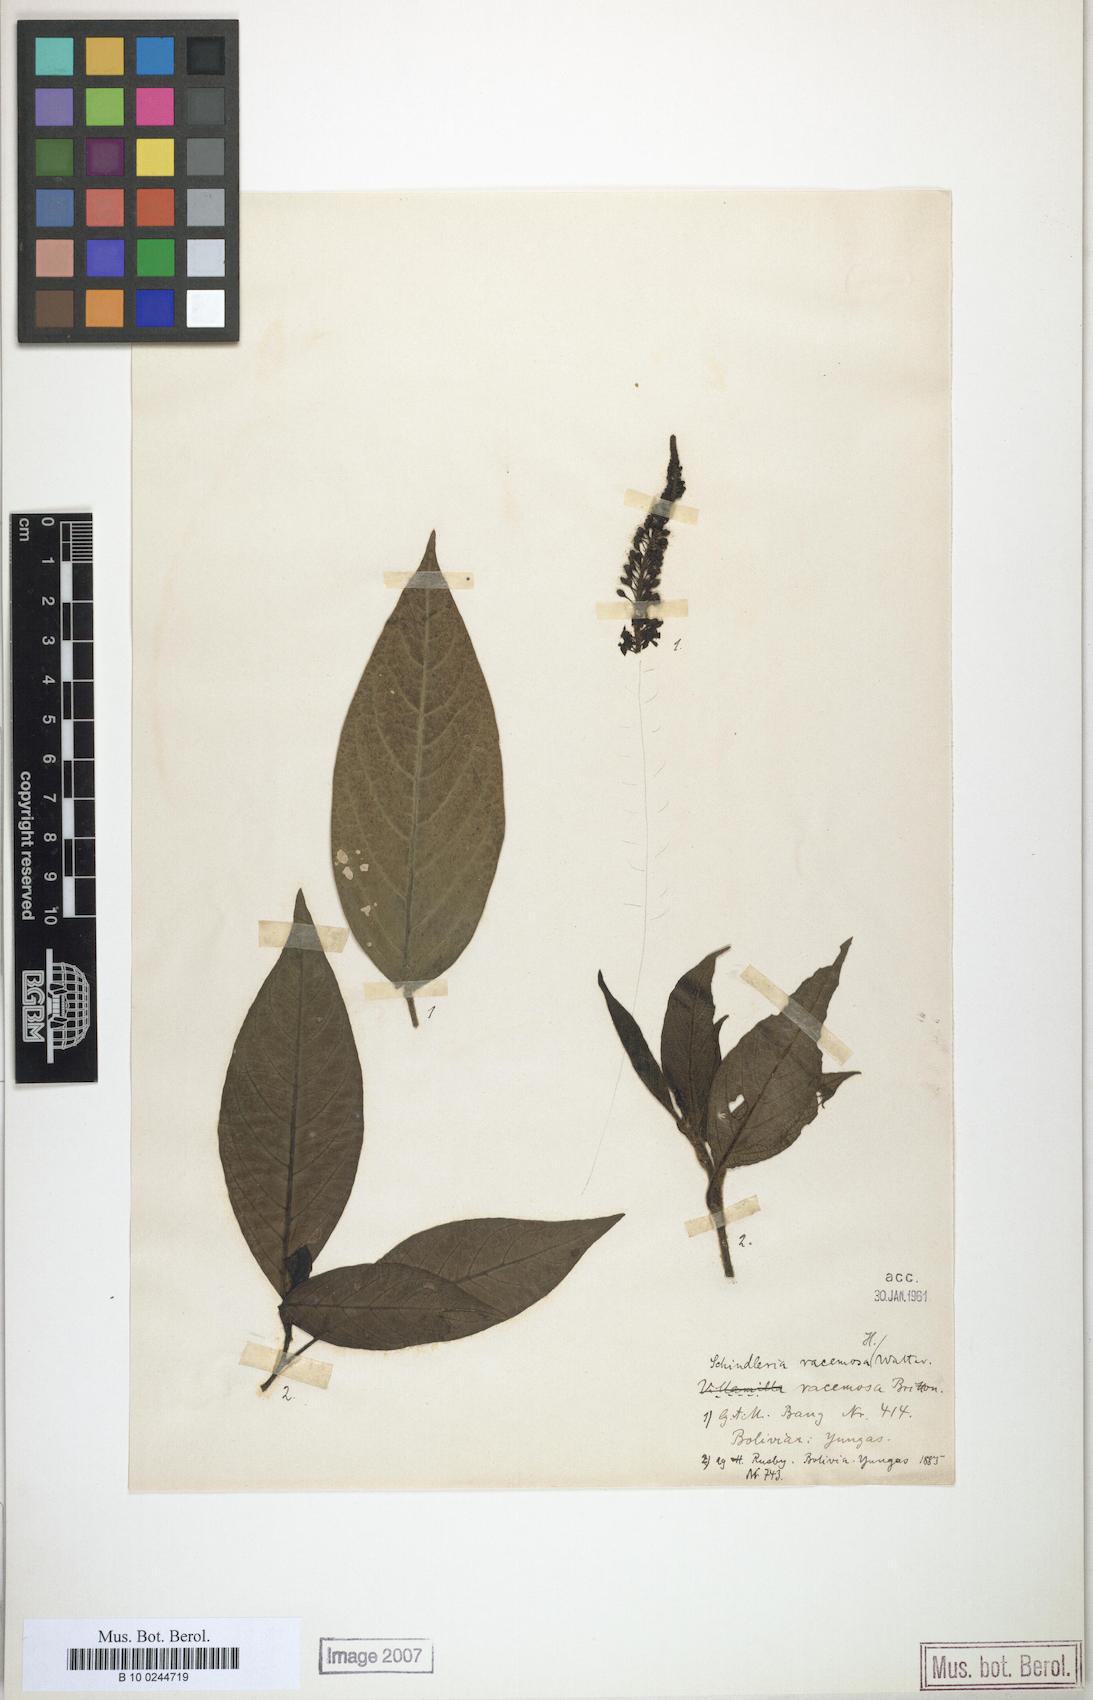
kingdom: Plantae
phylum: Tracheophyta
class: Magnoliopsida
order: Caryophyllales
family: Phytolaccaceae
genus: Schindleria
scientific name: Schindleria racemosa
